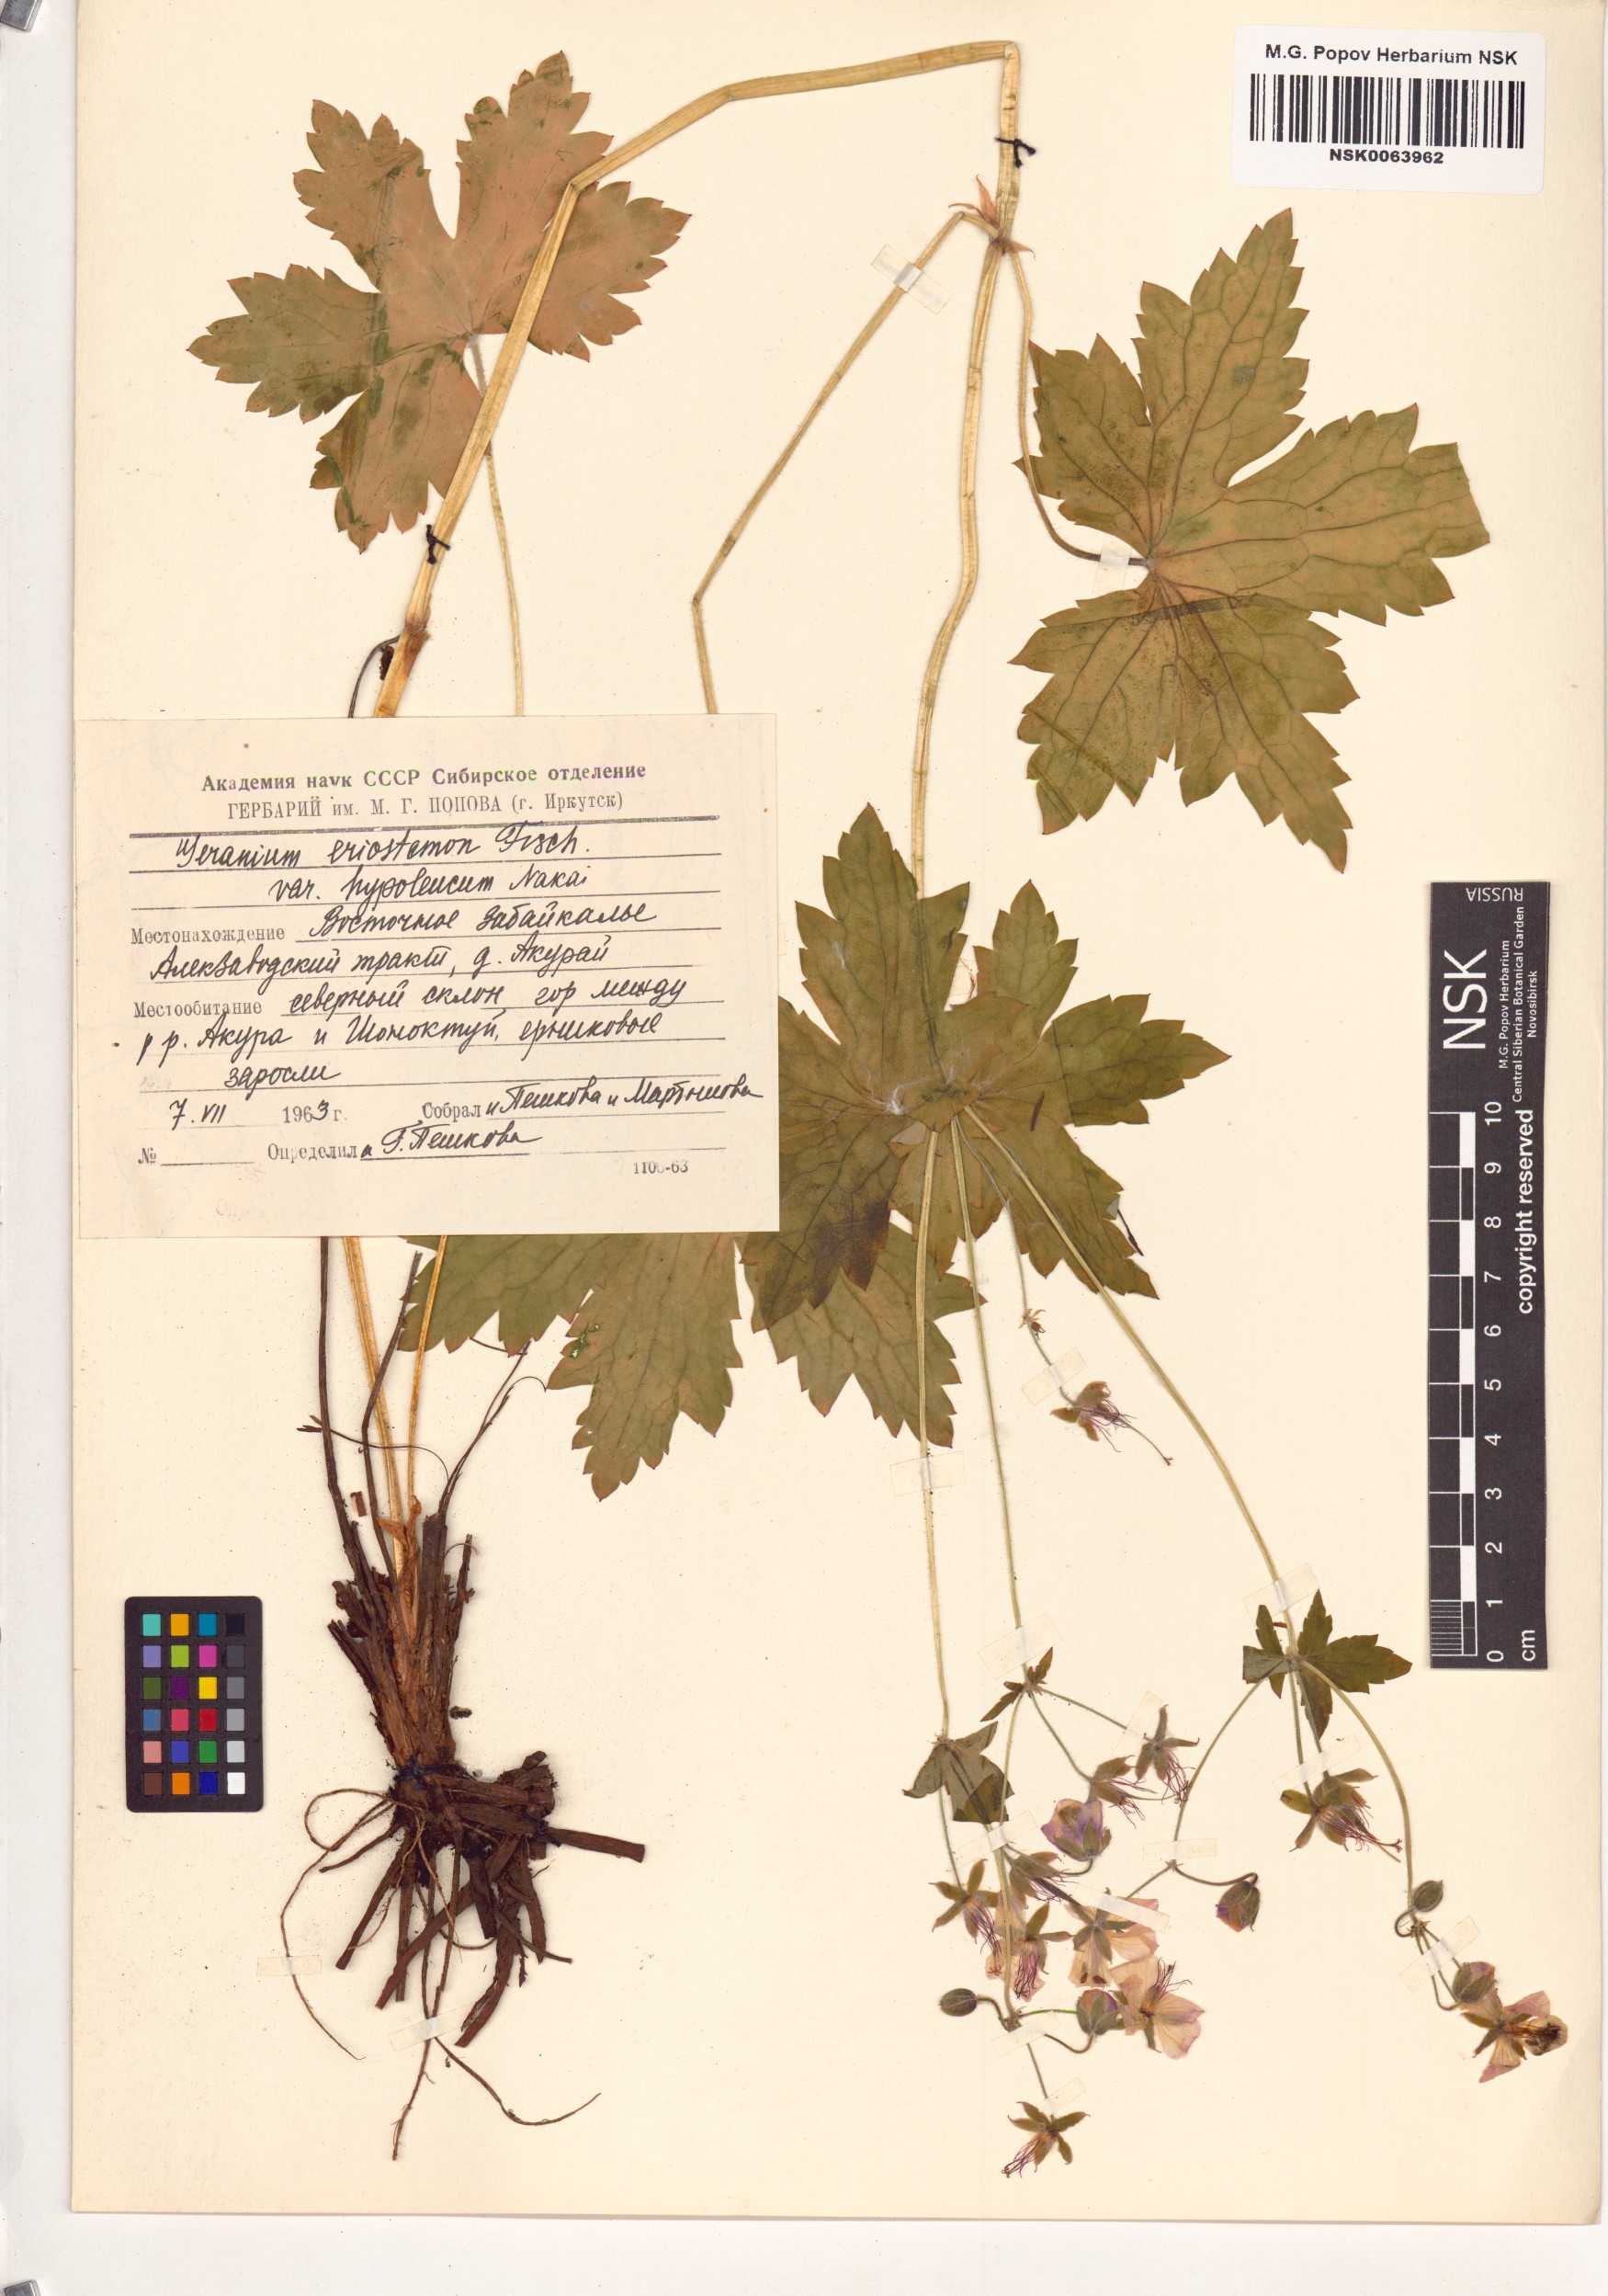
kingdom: Plantae
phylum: Tracheophyta
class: Magnoliopsida
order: Geraniales
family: Geraniaceae
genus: Geranium
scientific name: Geranium platyanthum
